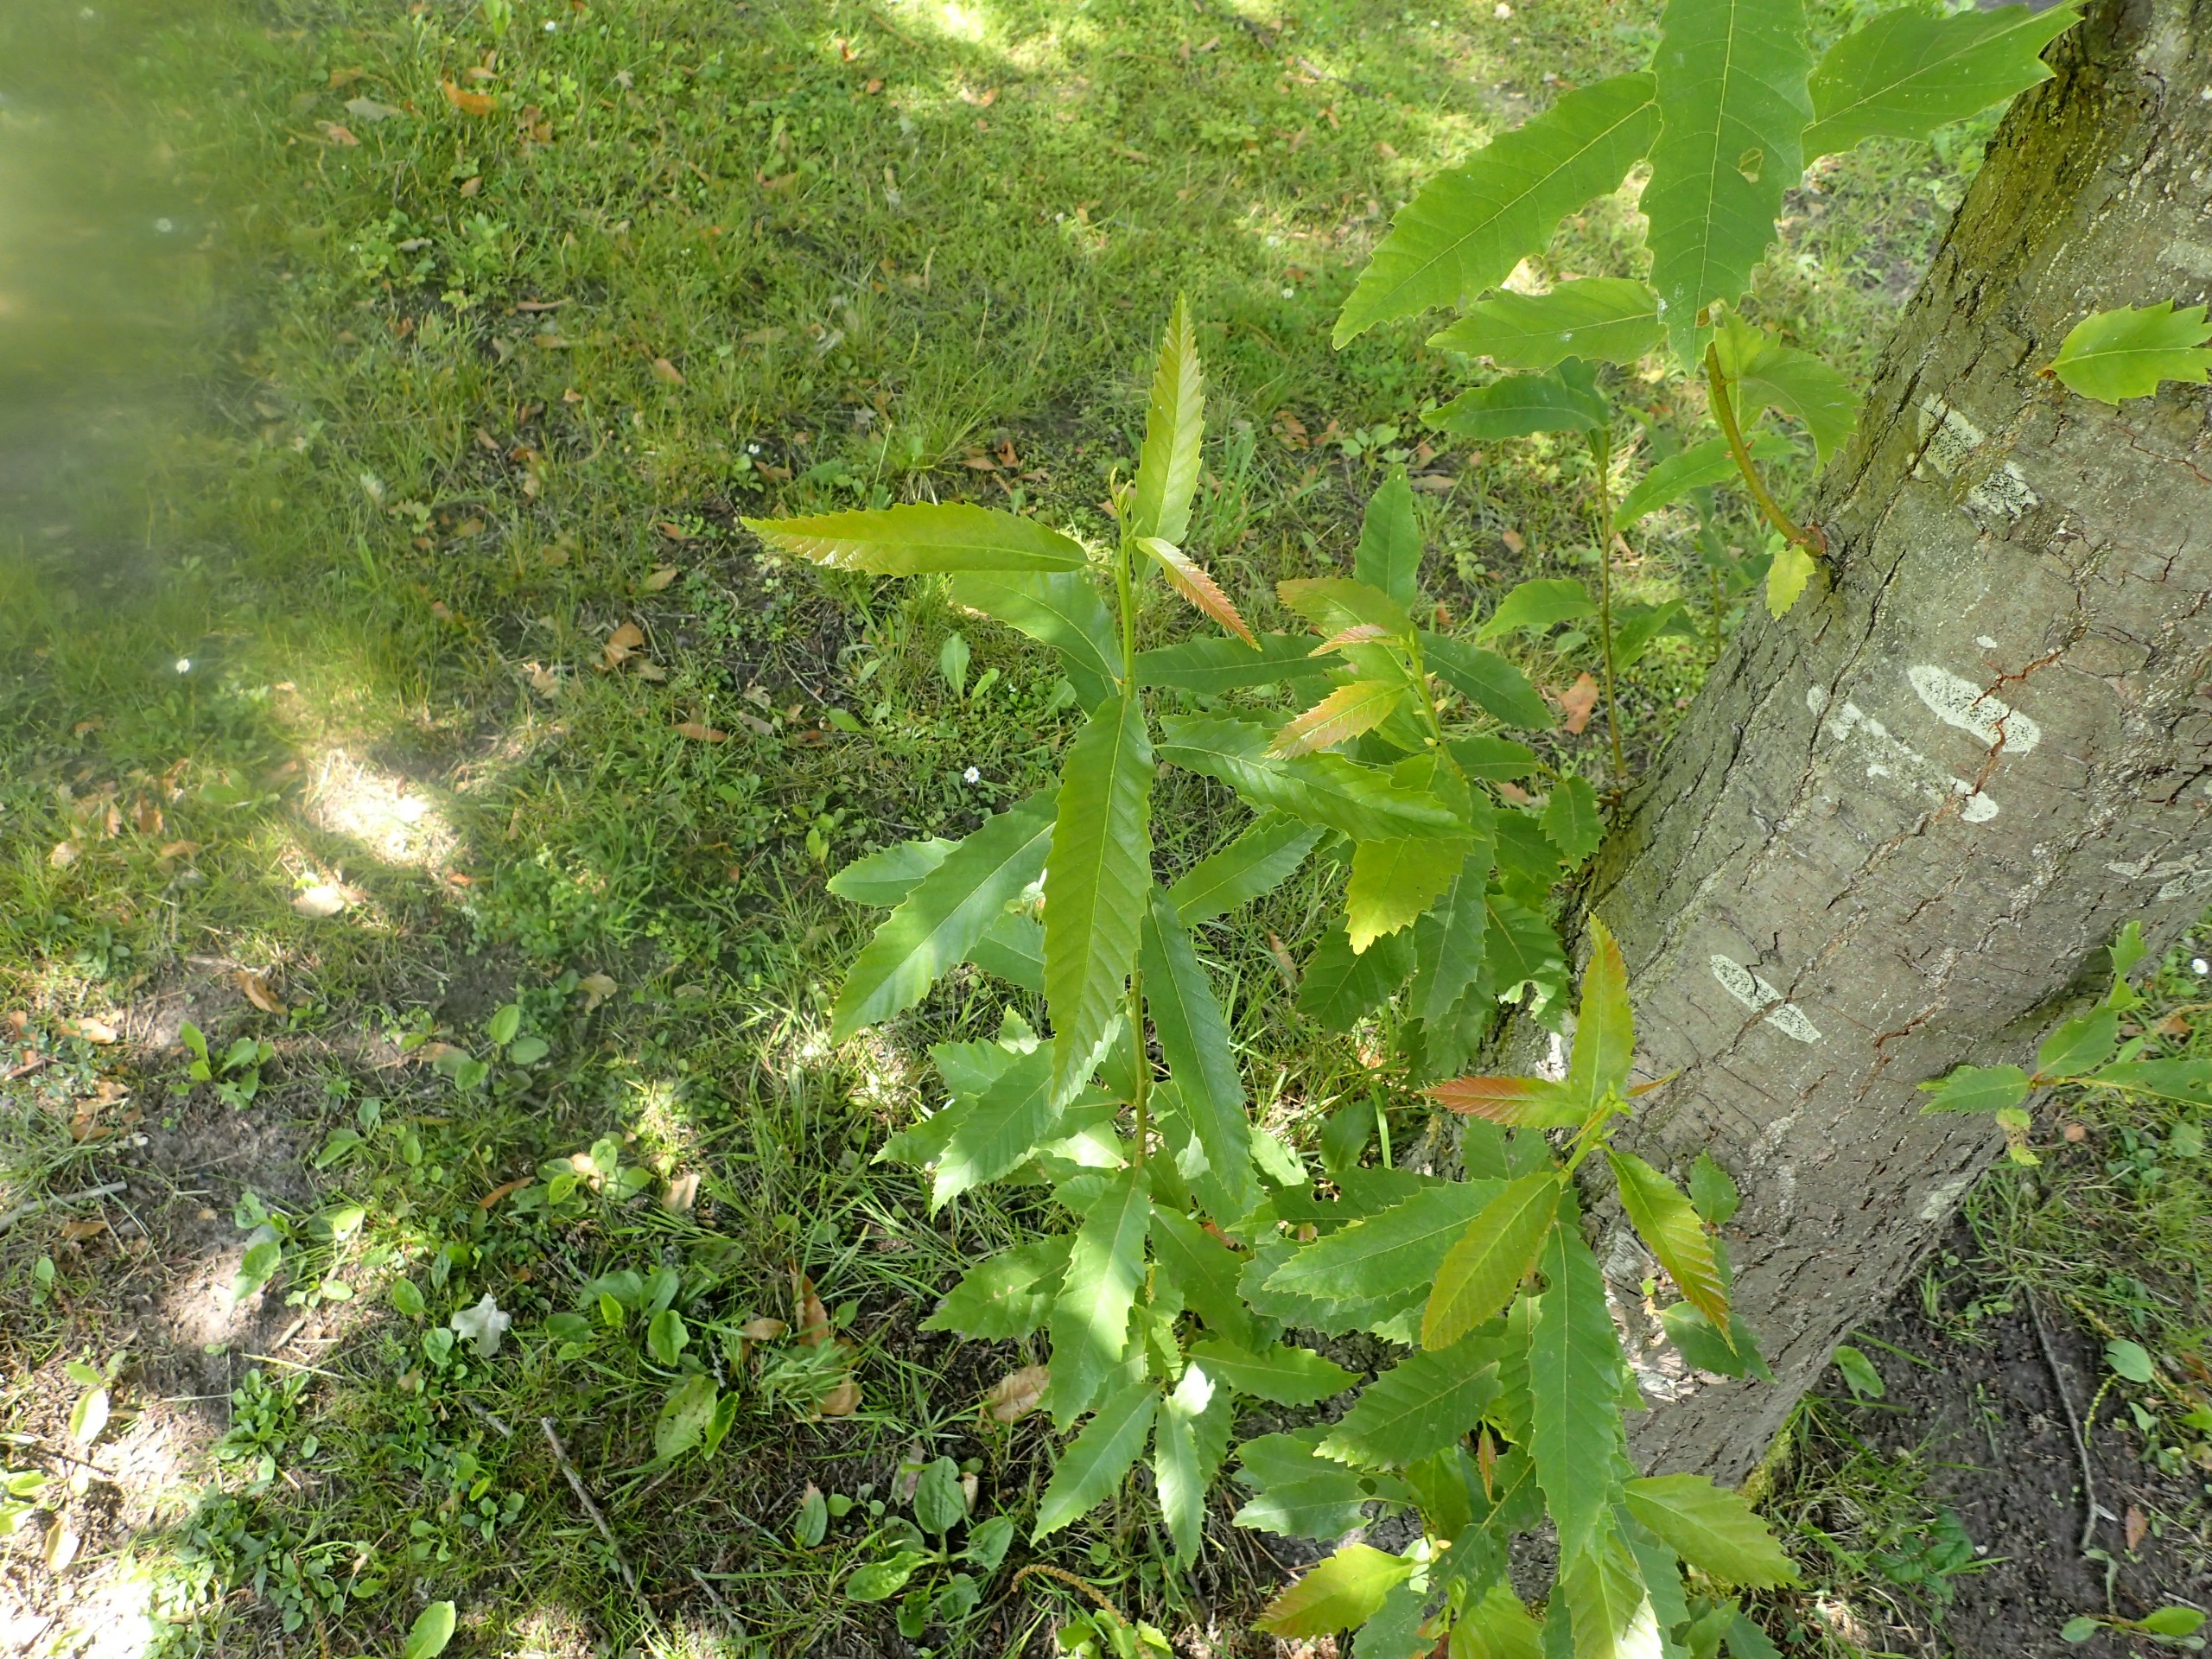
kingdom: Plantae
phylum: Tracheophyta
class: Magnoliopsida
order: Fagales
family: Fagaceae
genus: Castanea
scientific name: Castanea sativa
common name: Ægte kastanie
